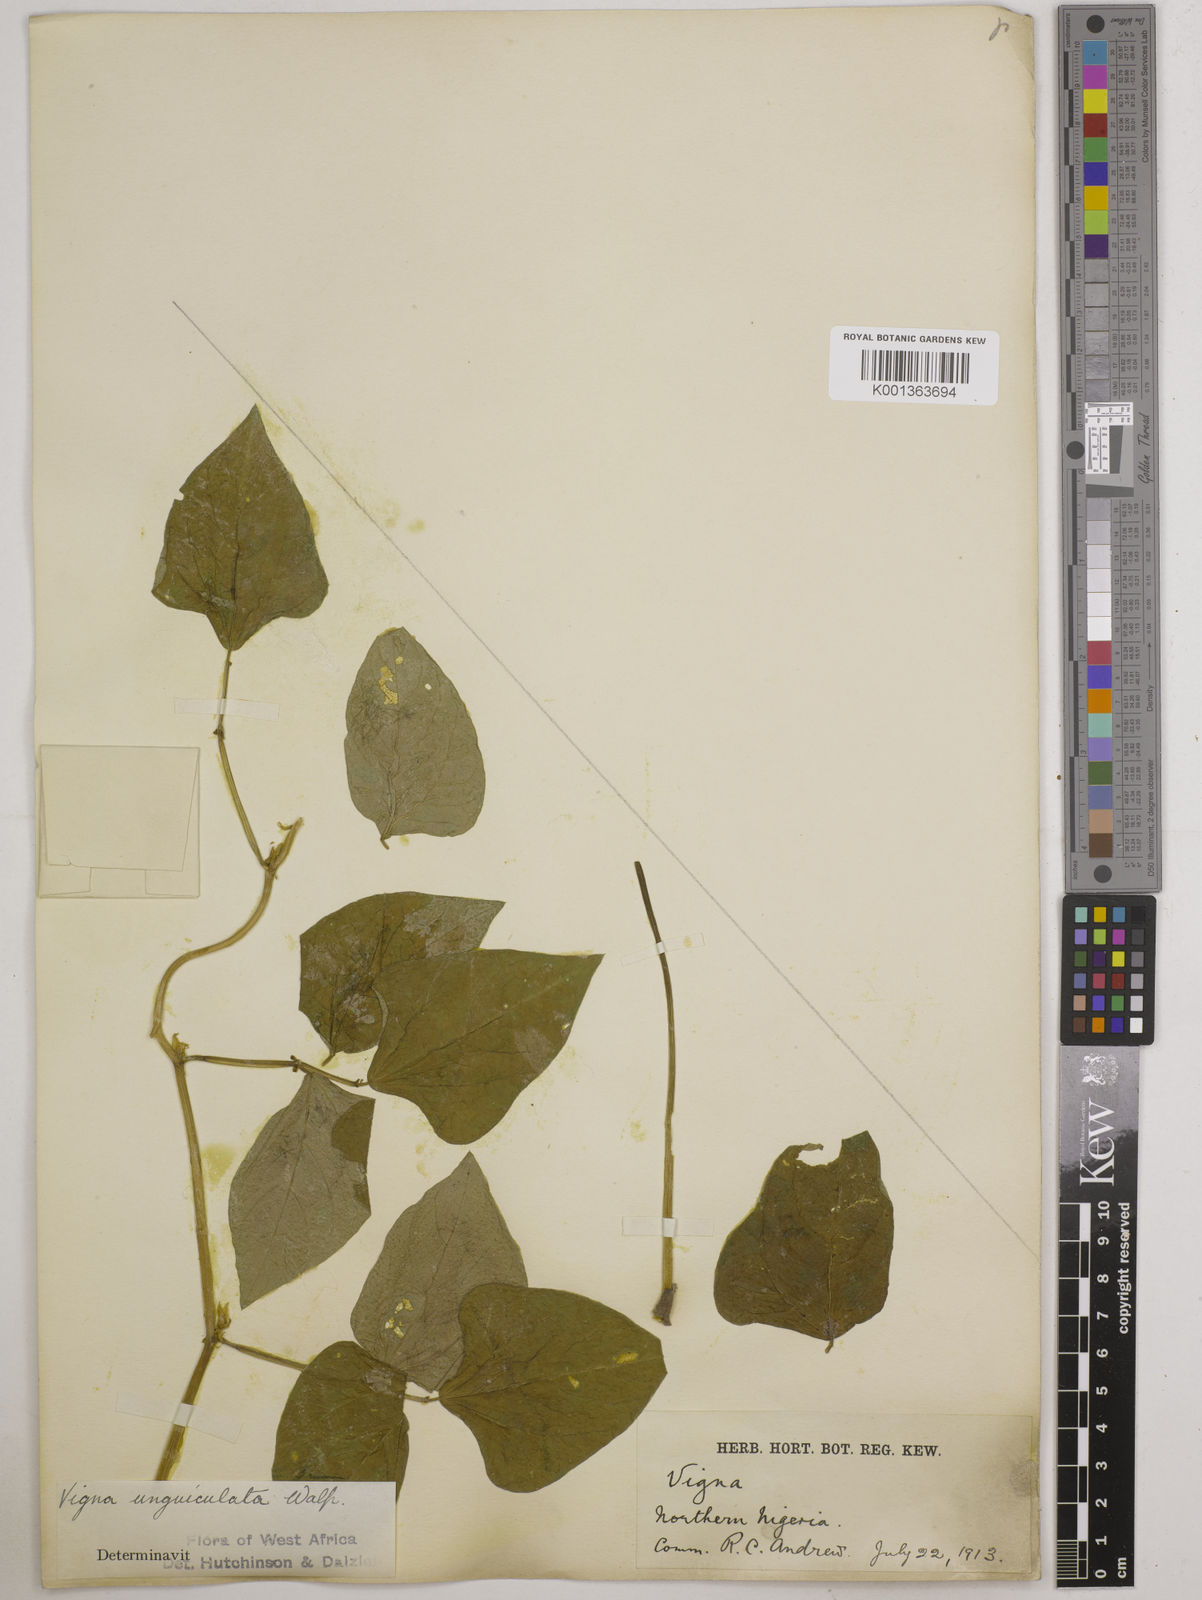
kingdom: Plantae
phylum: Tracheophyta
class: Magnoliopsida
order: Fabales
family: Fabaceae
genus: Vigna
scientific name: Vigna unguiculata
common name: Cowpea
